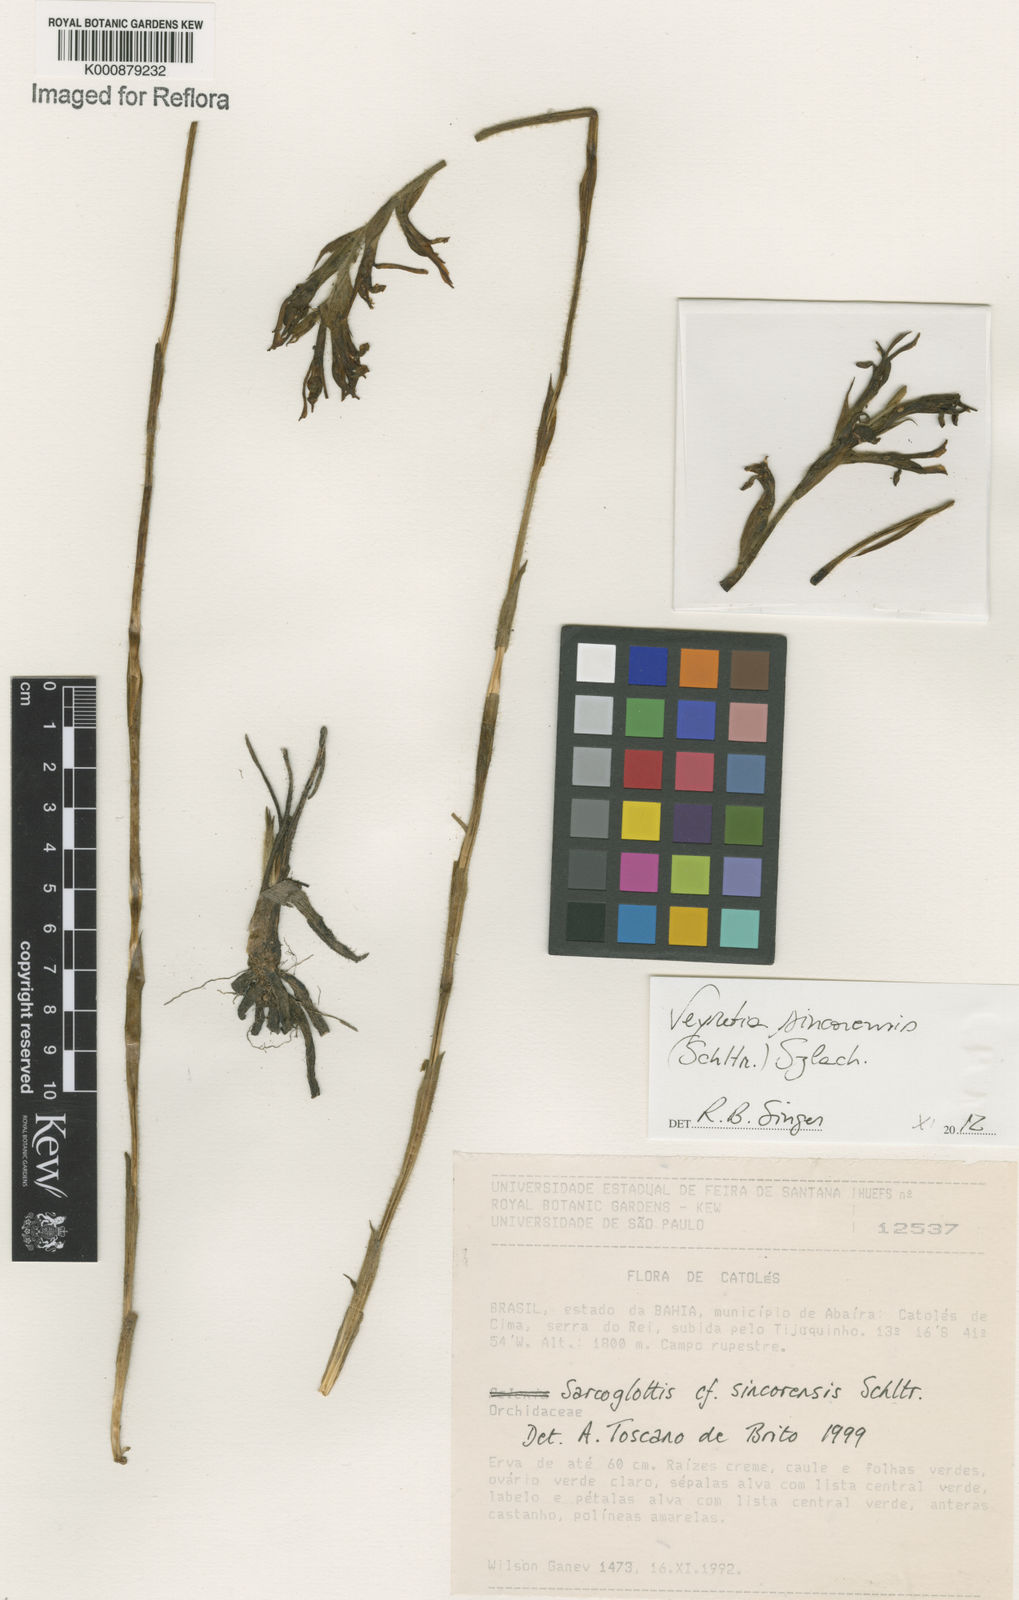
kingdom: Plantae
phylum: Tracheophyta
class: Liliopsida
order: Asparagales
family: Orchidaceae
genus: Veyretia
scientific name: Veyretia sincorensis
